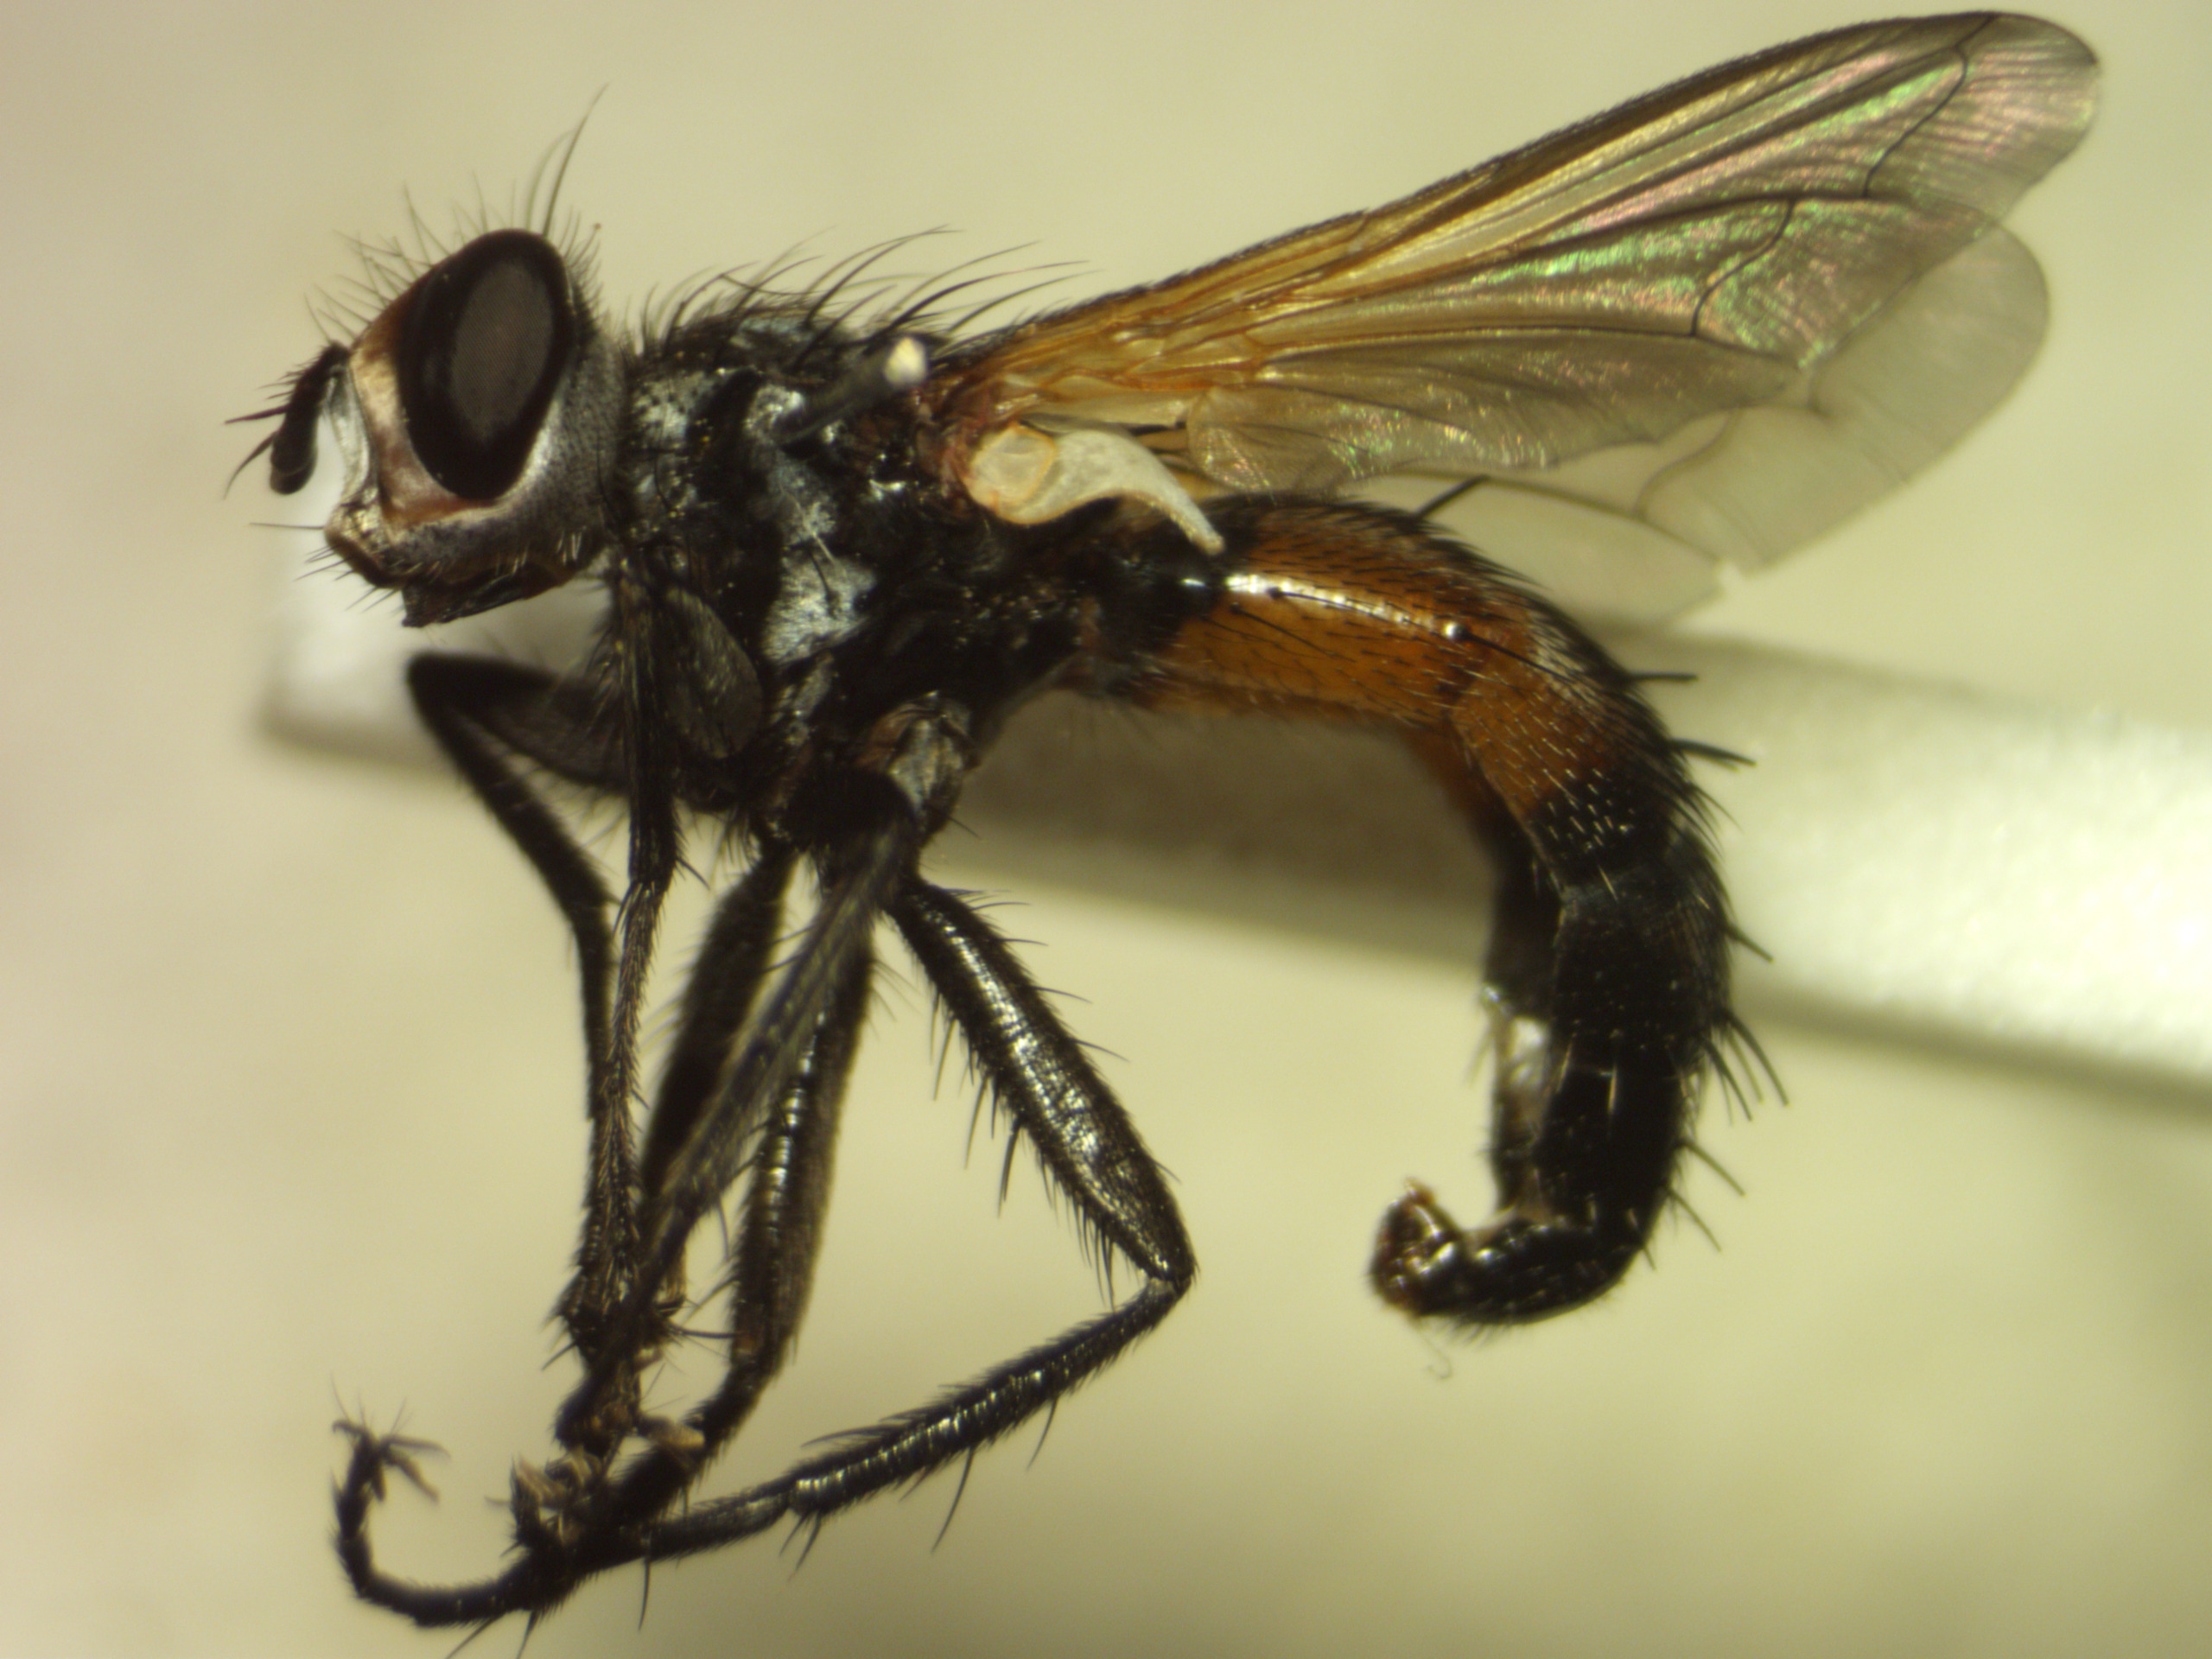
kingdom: Animalia
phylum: Arthropoda
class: Insecta
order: Diptera
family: Tachinidae
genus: Cylindromyia
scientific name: Cylindromyia auriceps
